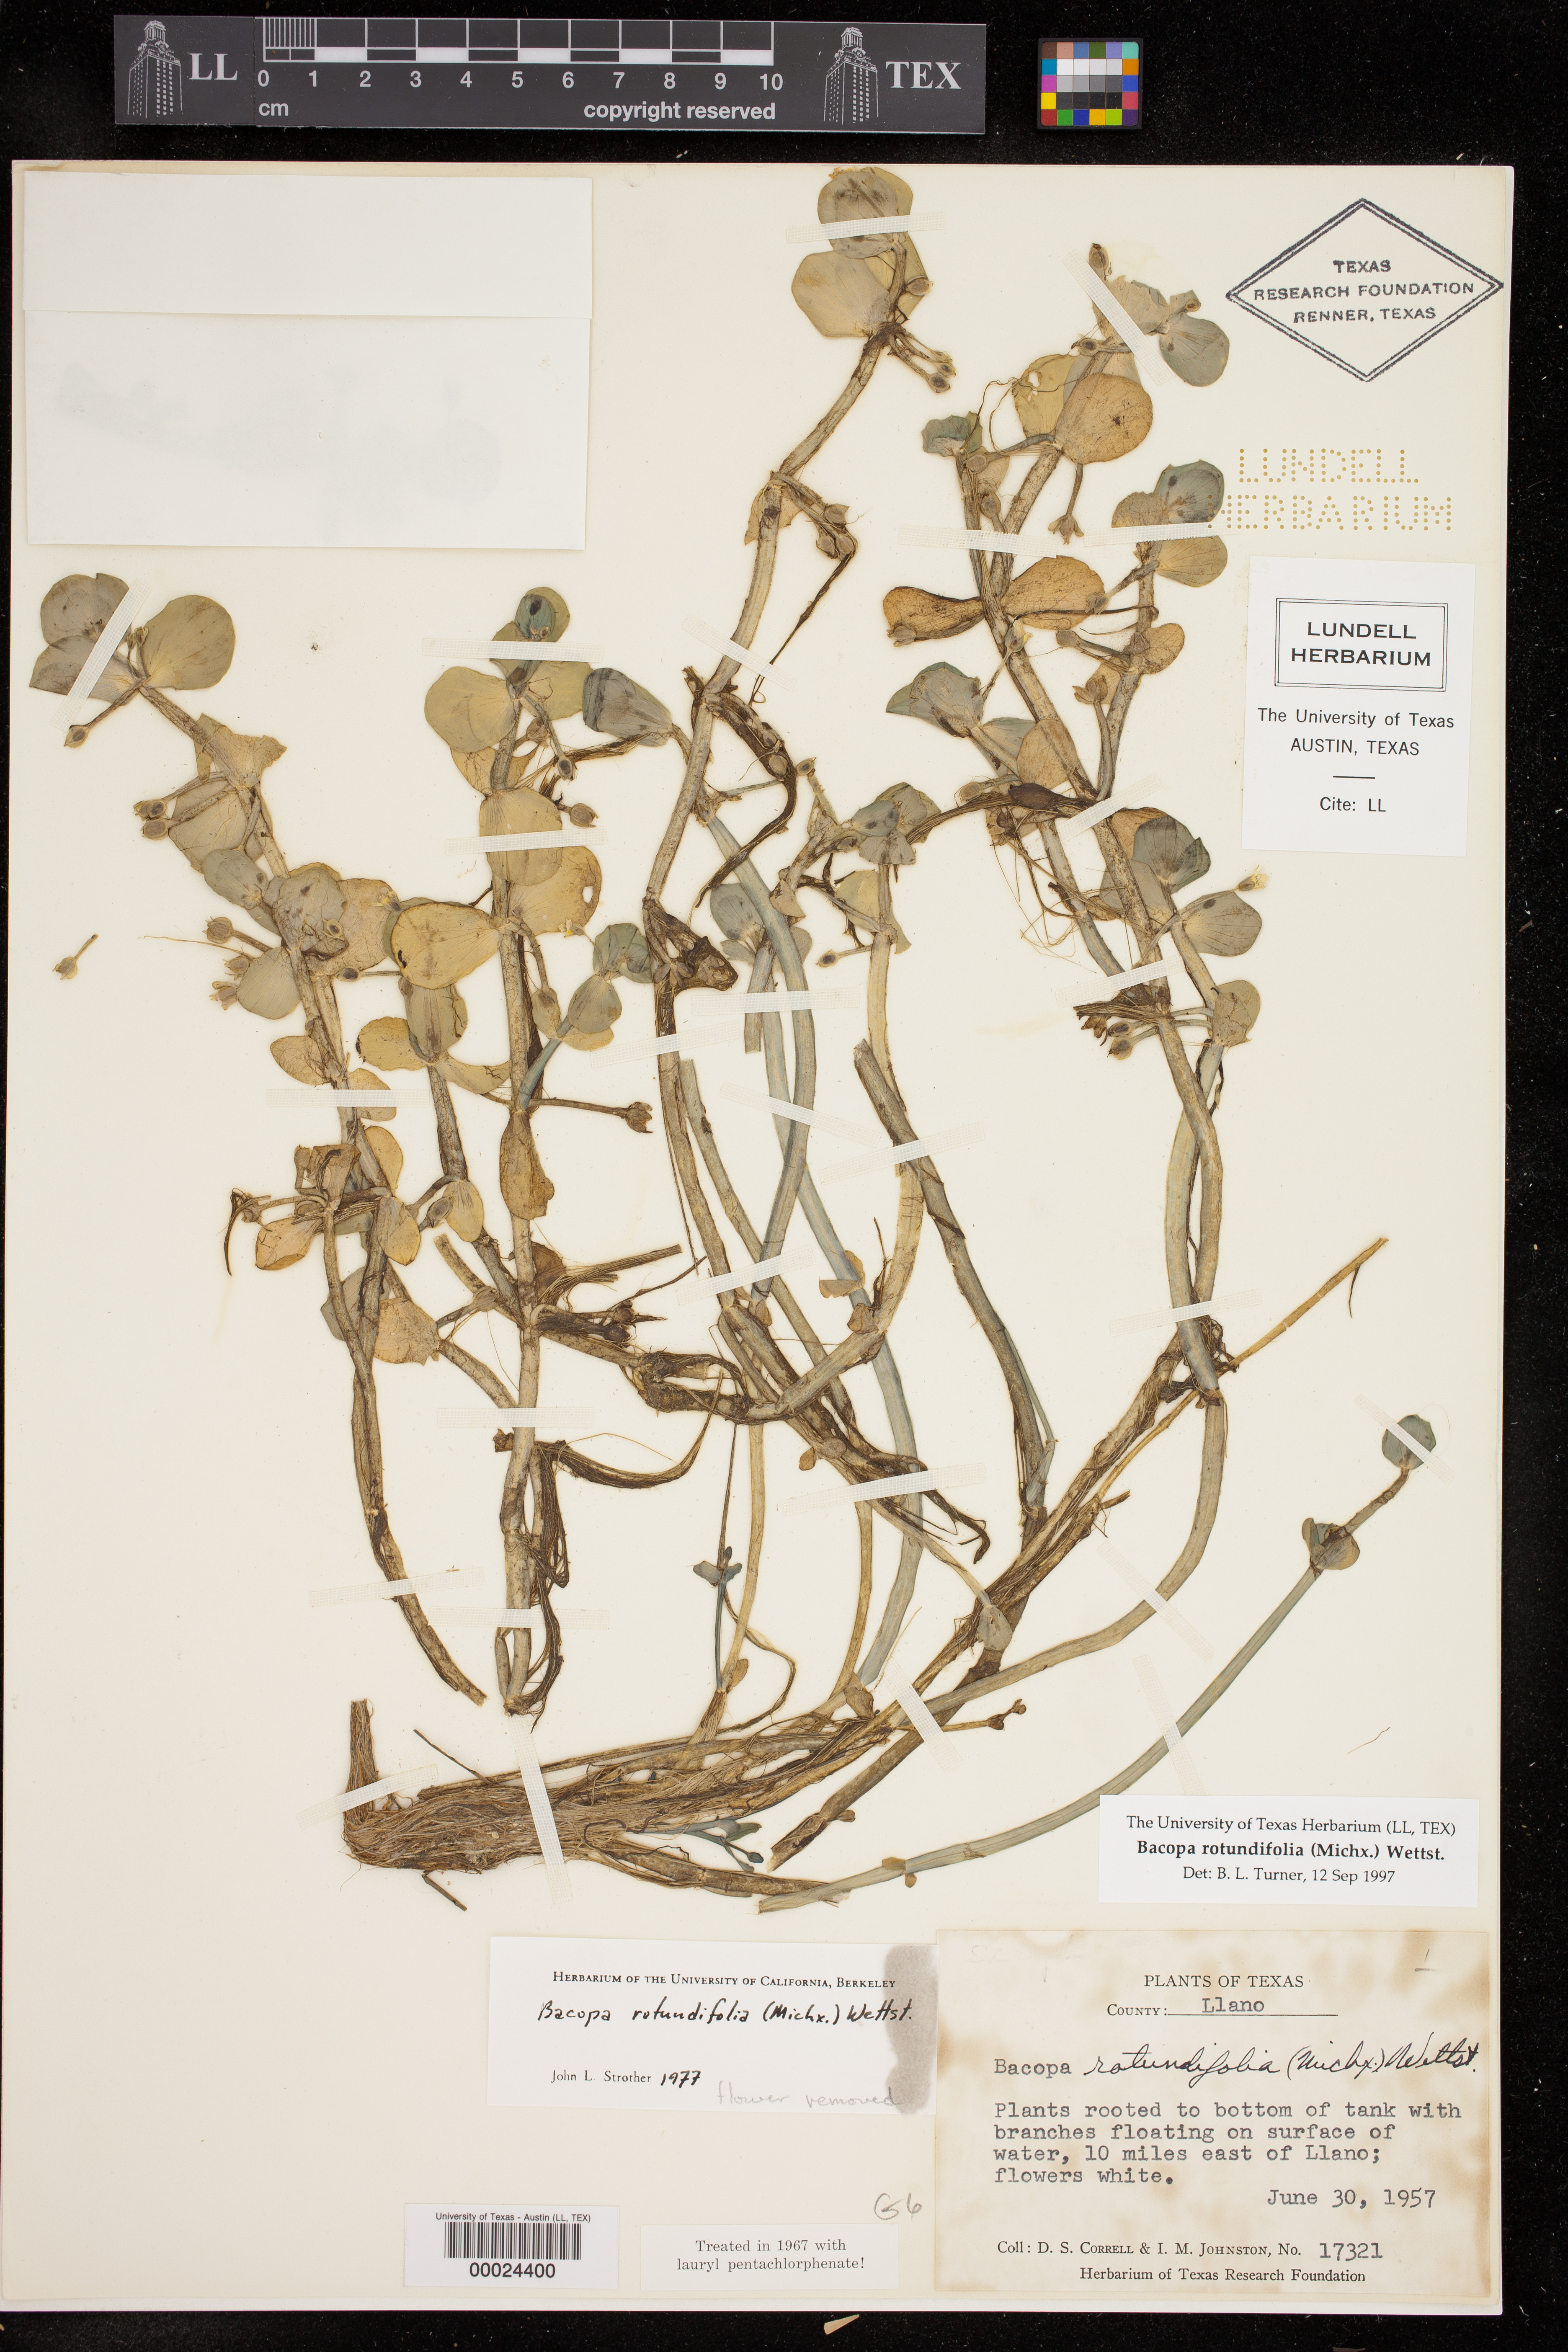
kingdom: Plantae
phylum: Tracheophyta
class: Magnoliopsida
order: Lamiales
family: Plantaginaceae
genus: Bacopa
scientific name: Bacopa rotundifolia
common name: Disc water hyssop
